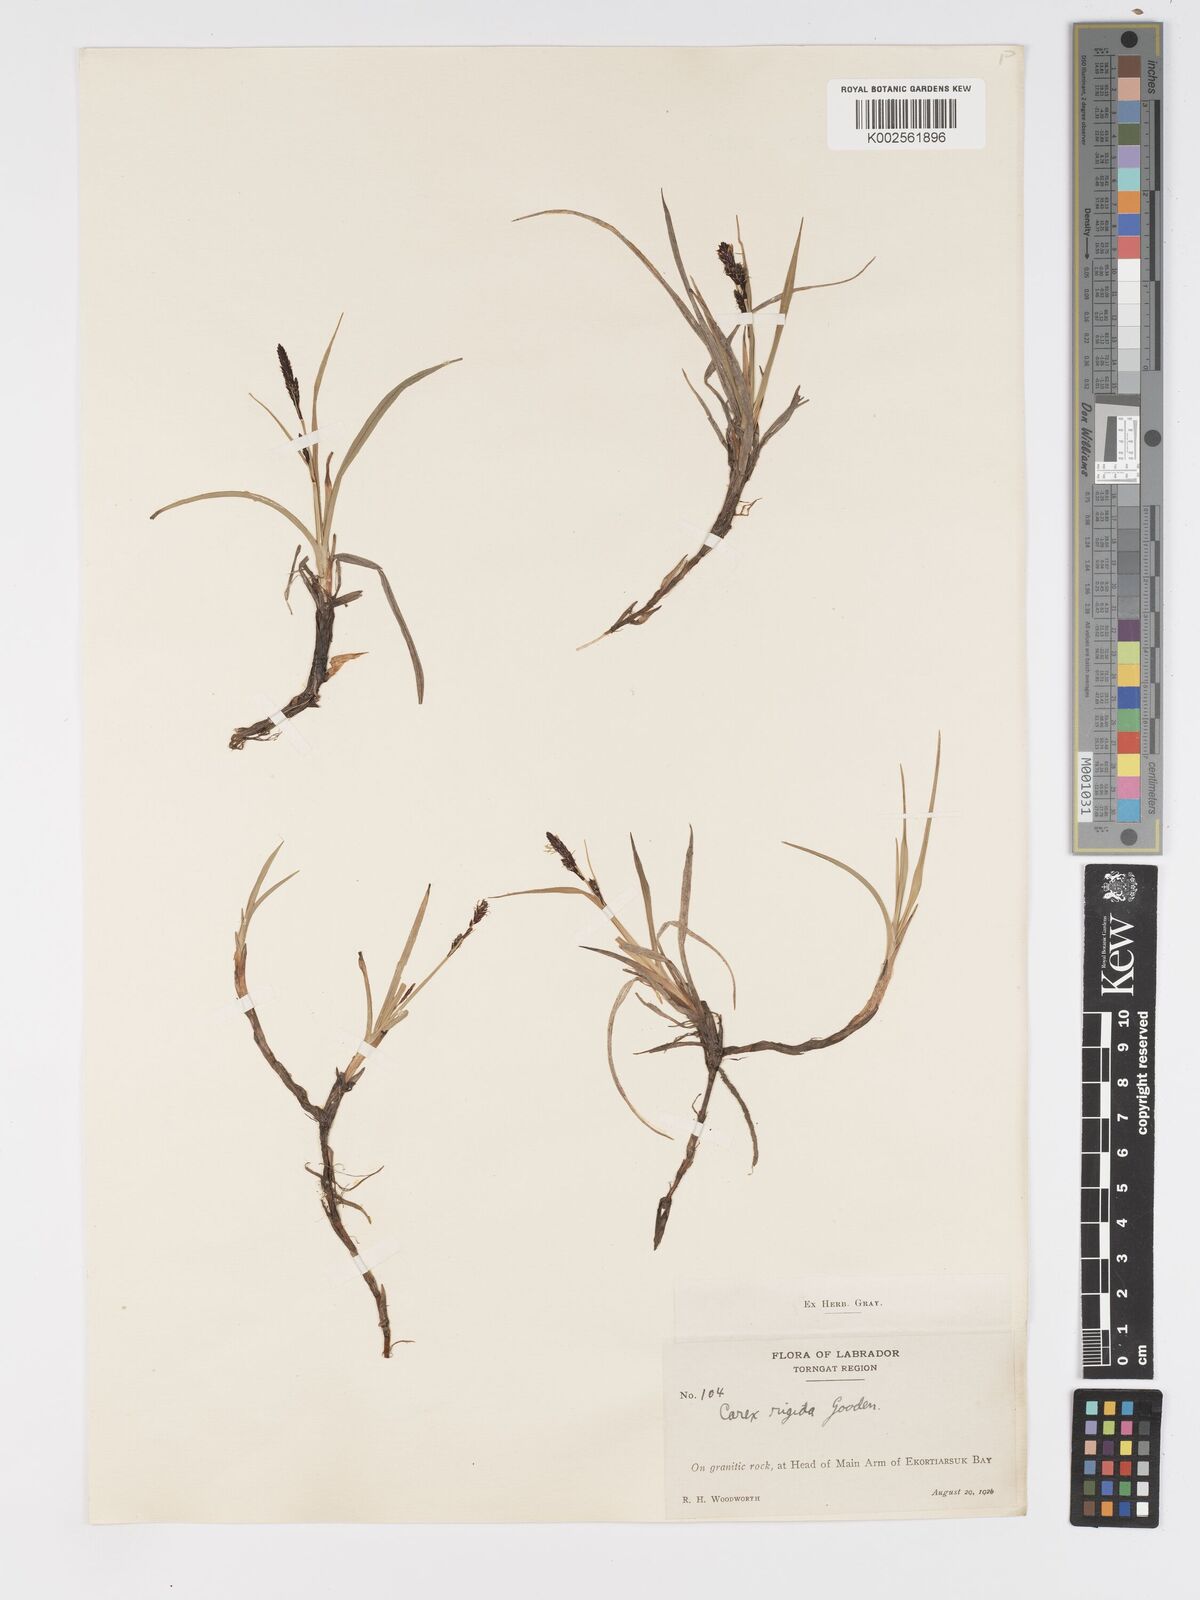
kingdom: Plantae
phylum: Tracheophyta
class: Liliopsida
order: Poales
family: Cyperaceae
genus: Carex
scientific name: Carex bigelowii
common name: Stiff sedge
